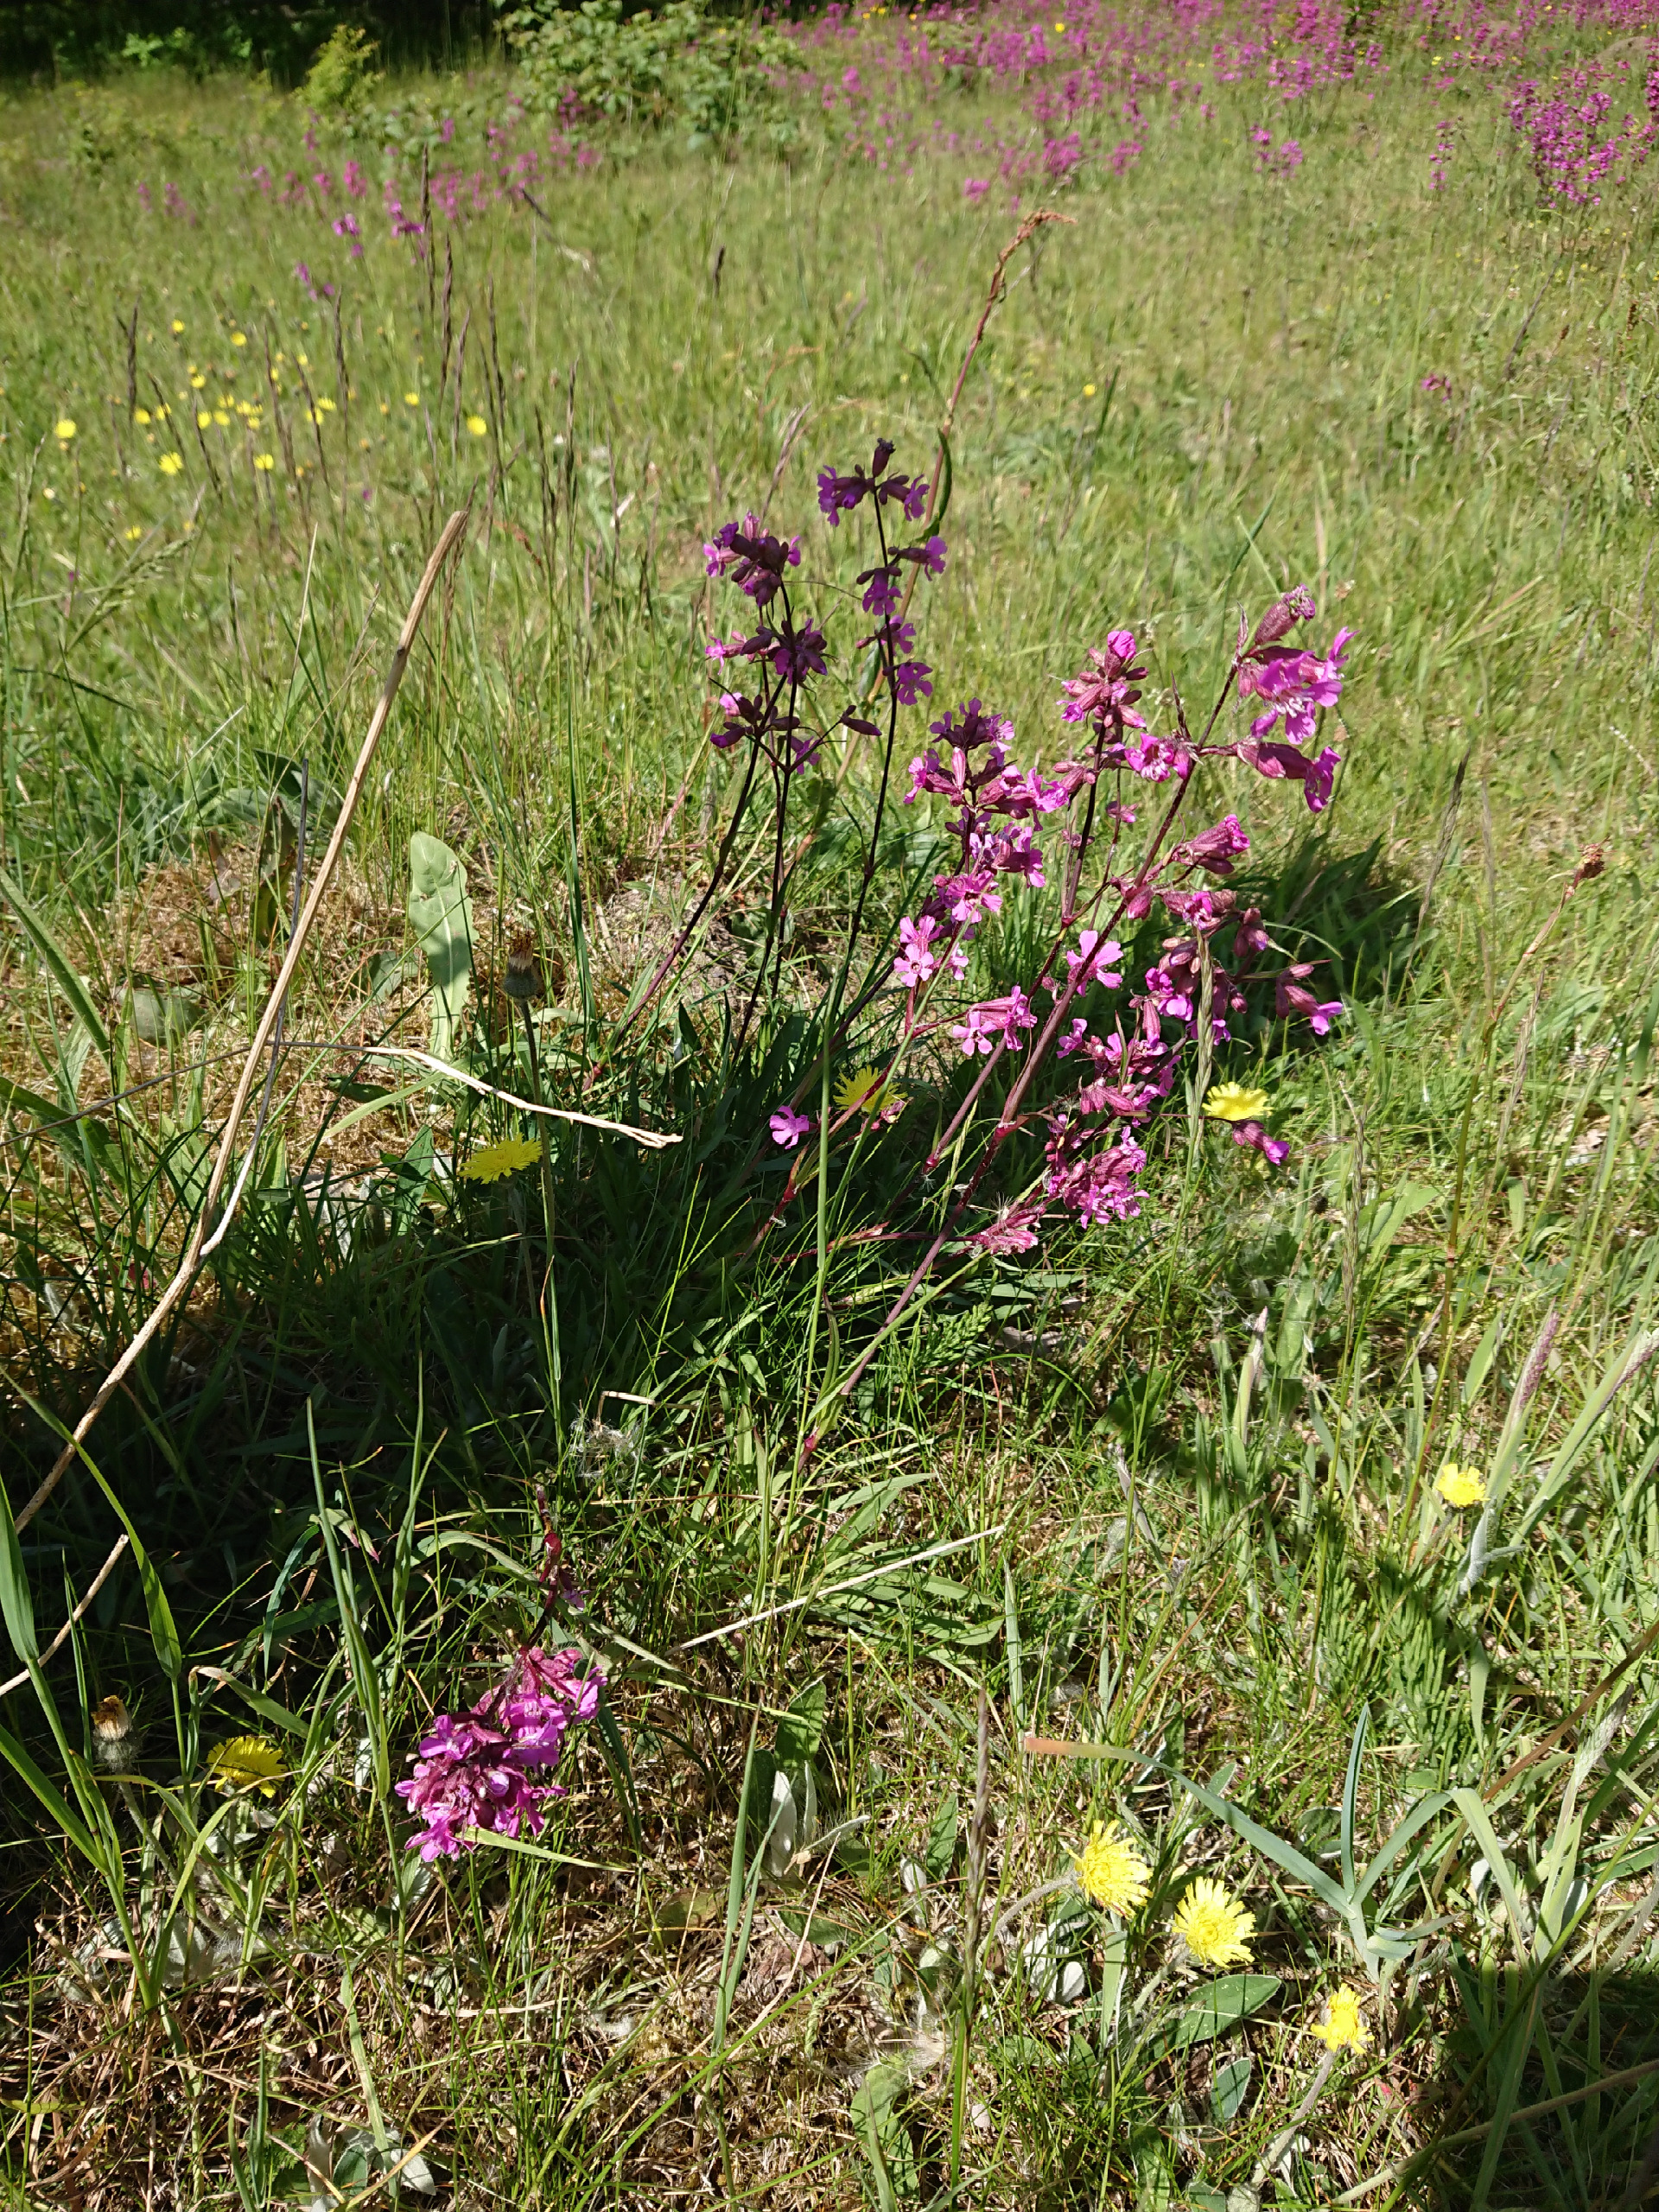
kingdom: Plantae
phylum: Tracheophyta
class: Magnoliopsida
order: Caryophyllales
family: Caryophyllaceae
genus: Viscaria
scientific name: Viscaria vulgaris
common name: Tjærenellike
